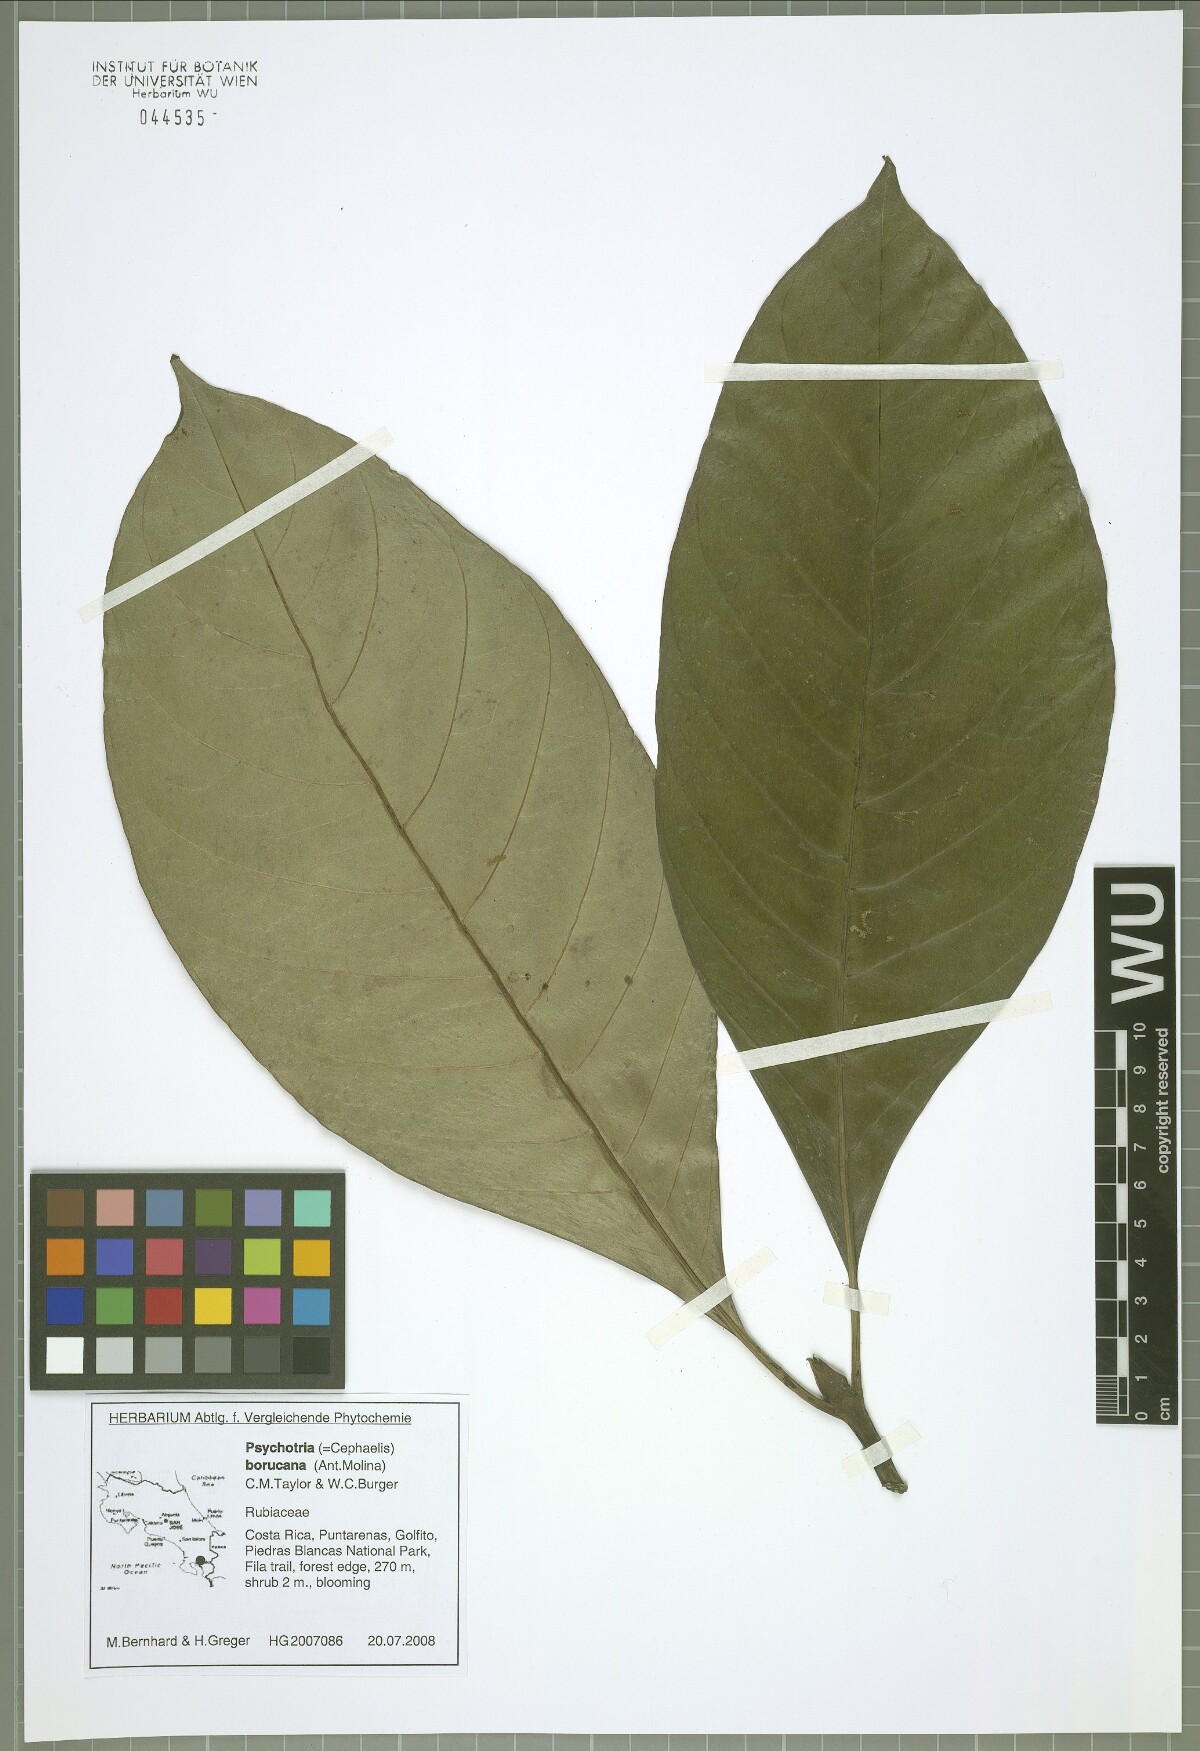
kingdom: Plantae
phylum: Tracheophyta
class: Magnoliopsida
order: Gentianales
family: Rubiaceae
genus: Carapichea
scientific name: Carapichea affinis
